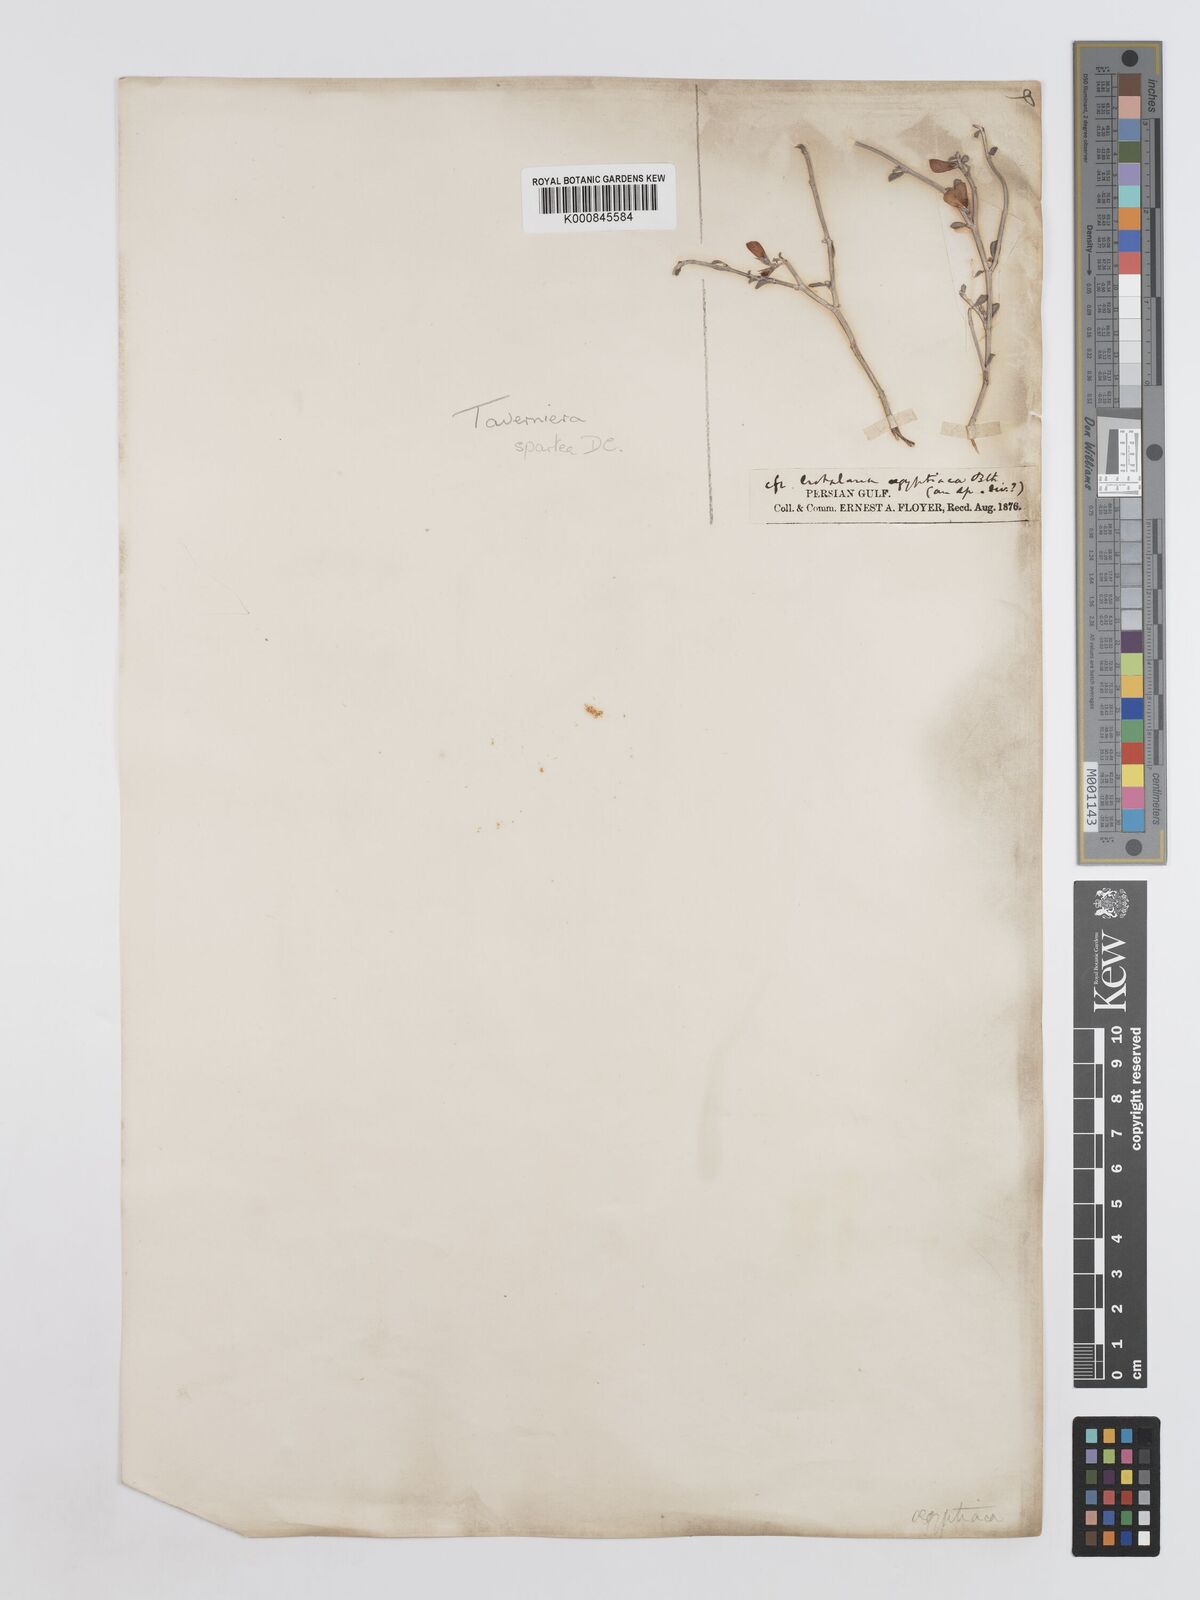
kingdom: Plantae
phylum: Tracheophyta
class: Magnoliopsida
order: Fabales
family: Fabaceae
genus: Taverniera
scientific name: Taverniera spartea
